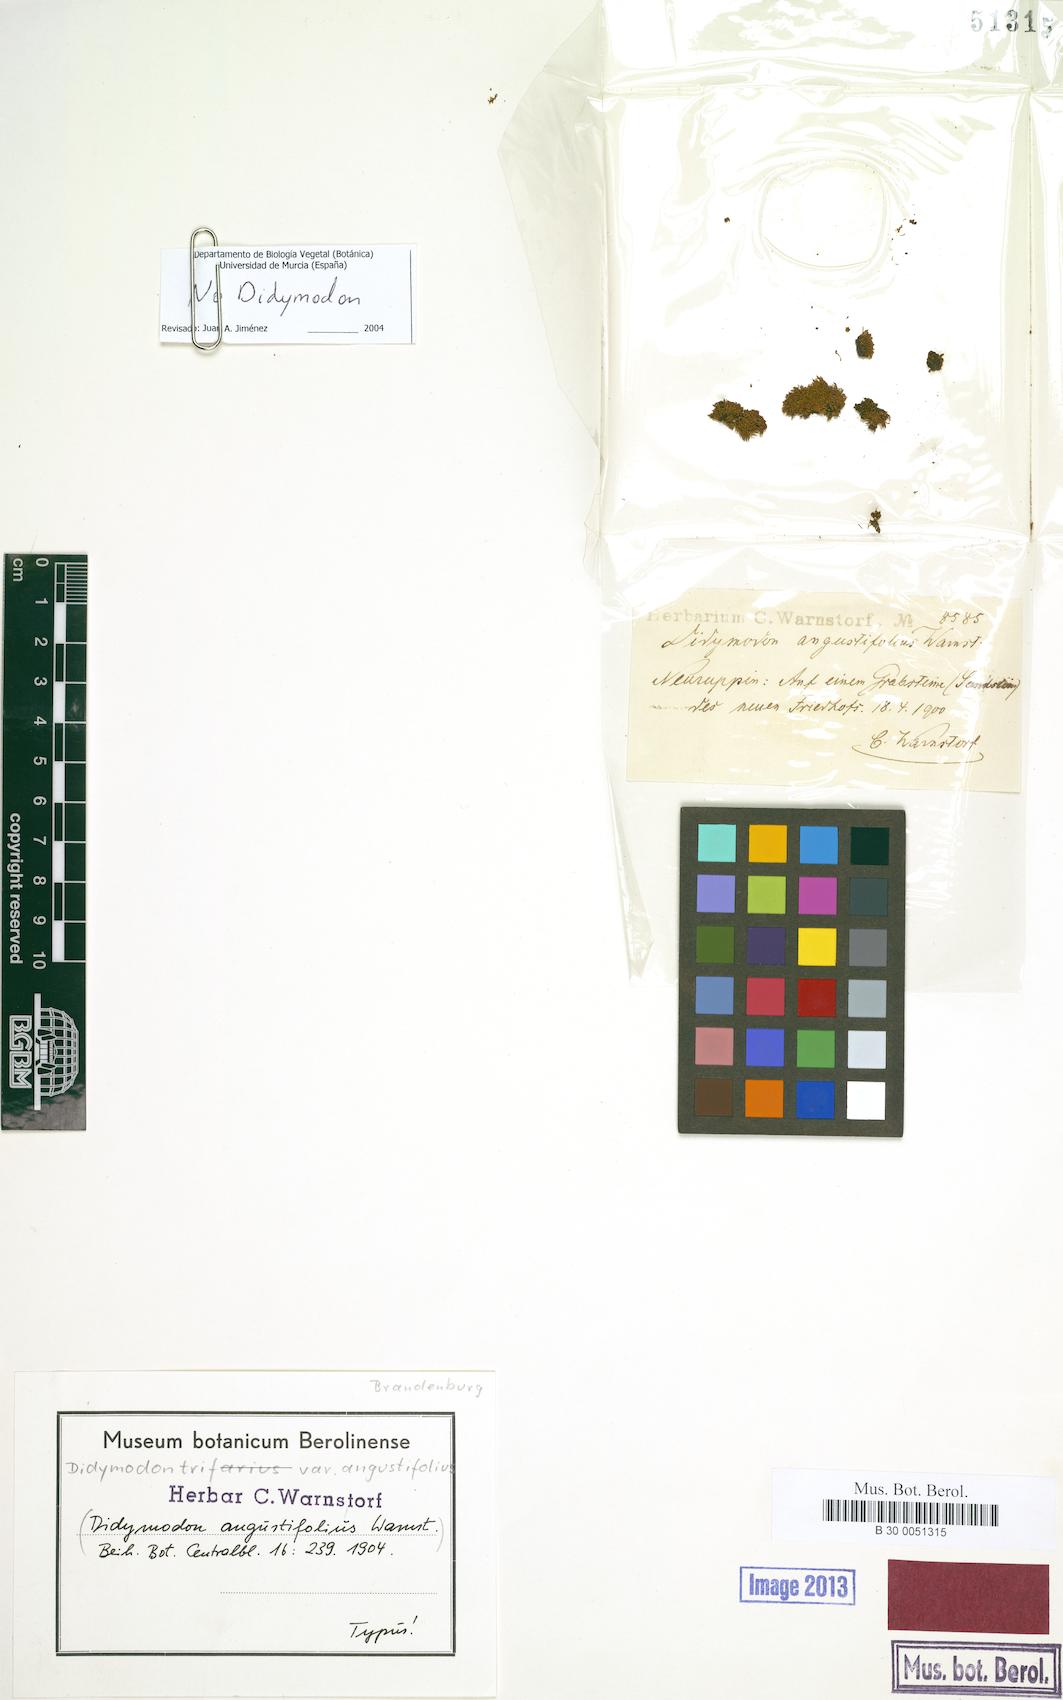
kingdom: Plantae
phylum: Bryophyta
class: Bryopsida
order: Orthotrichales
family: Orthotrichaceae
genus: Orthotrichum
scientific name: Orthotrichum pulchellum
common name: Elegant bristle-moss
